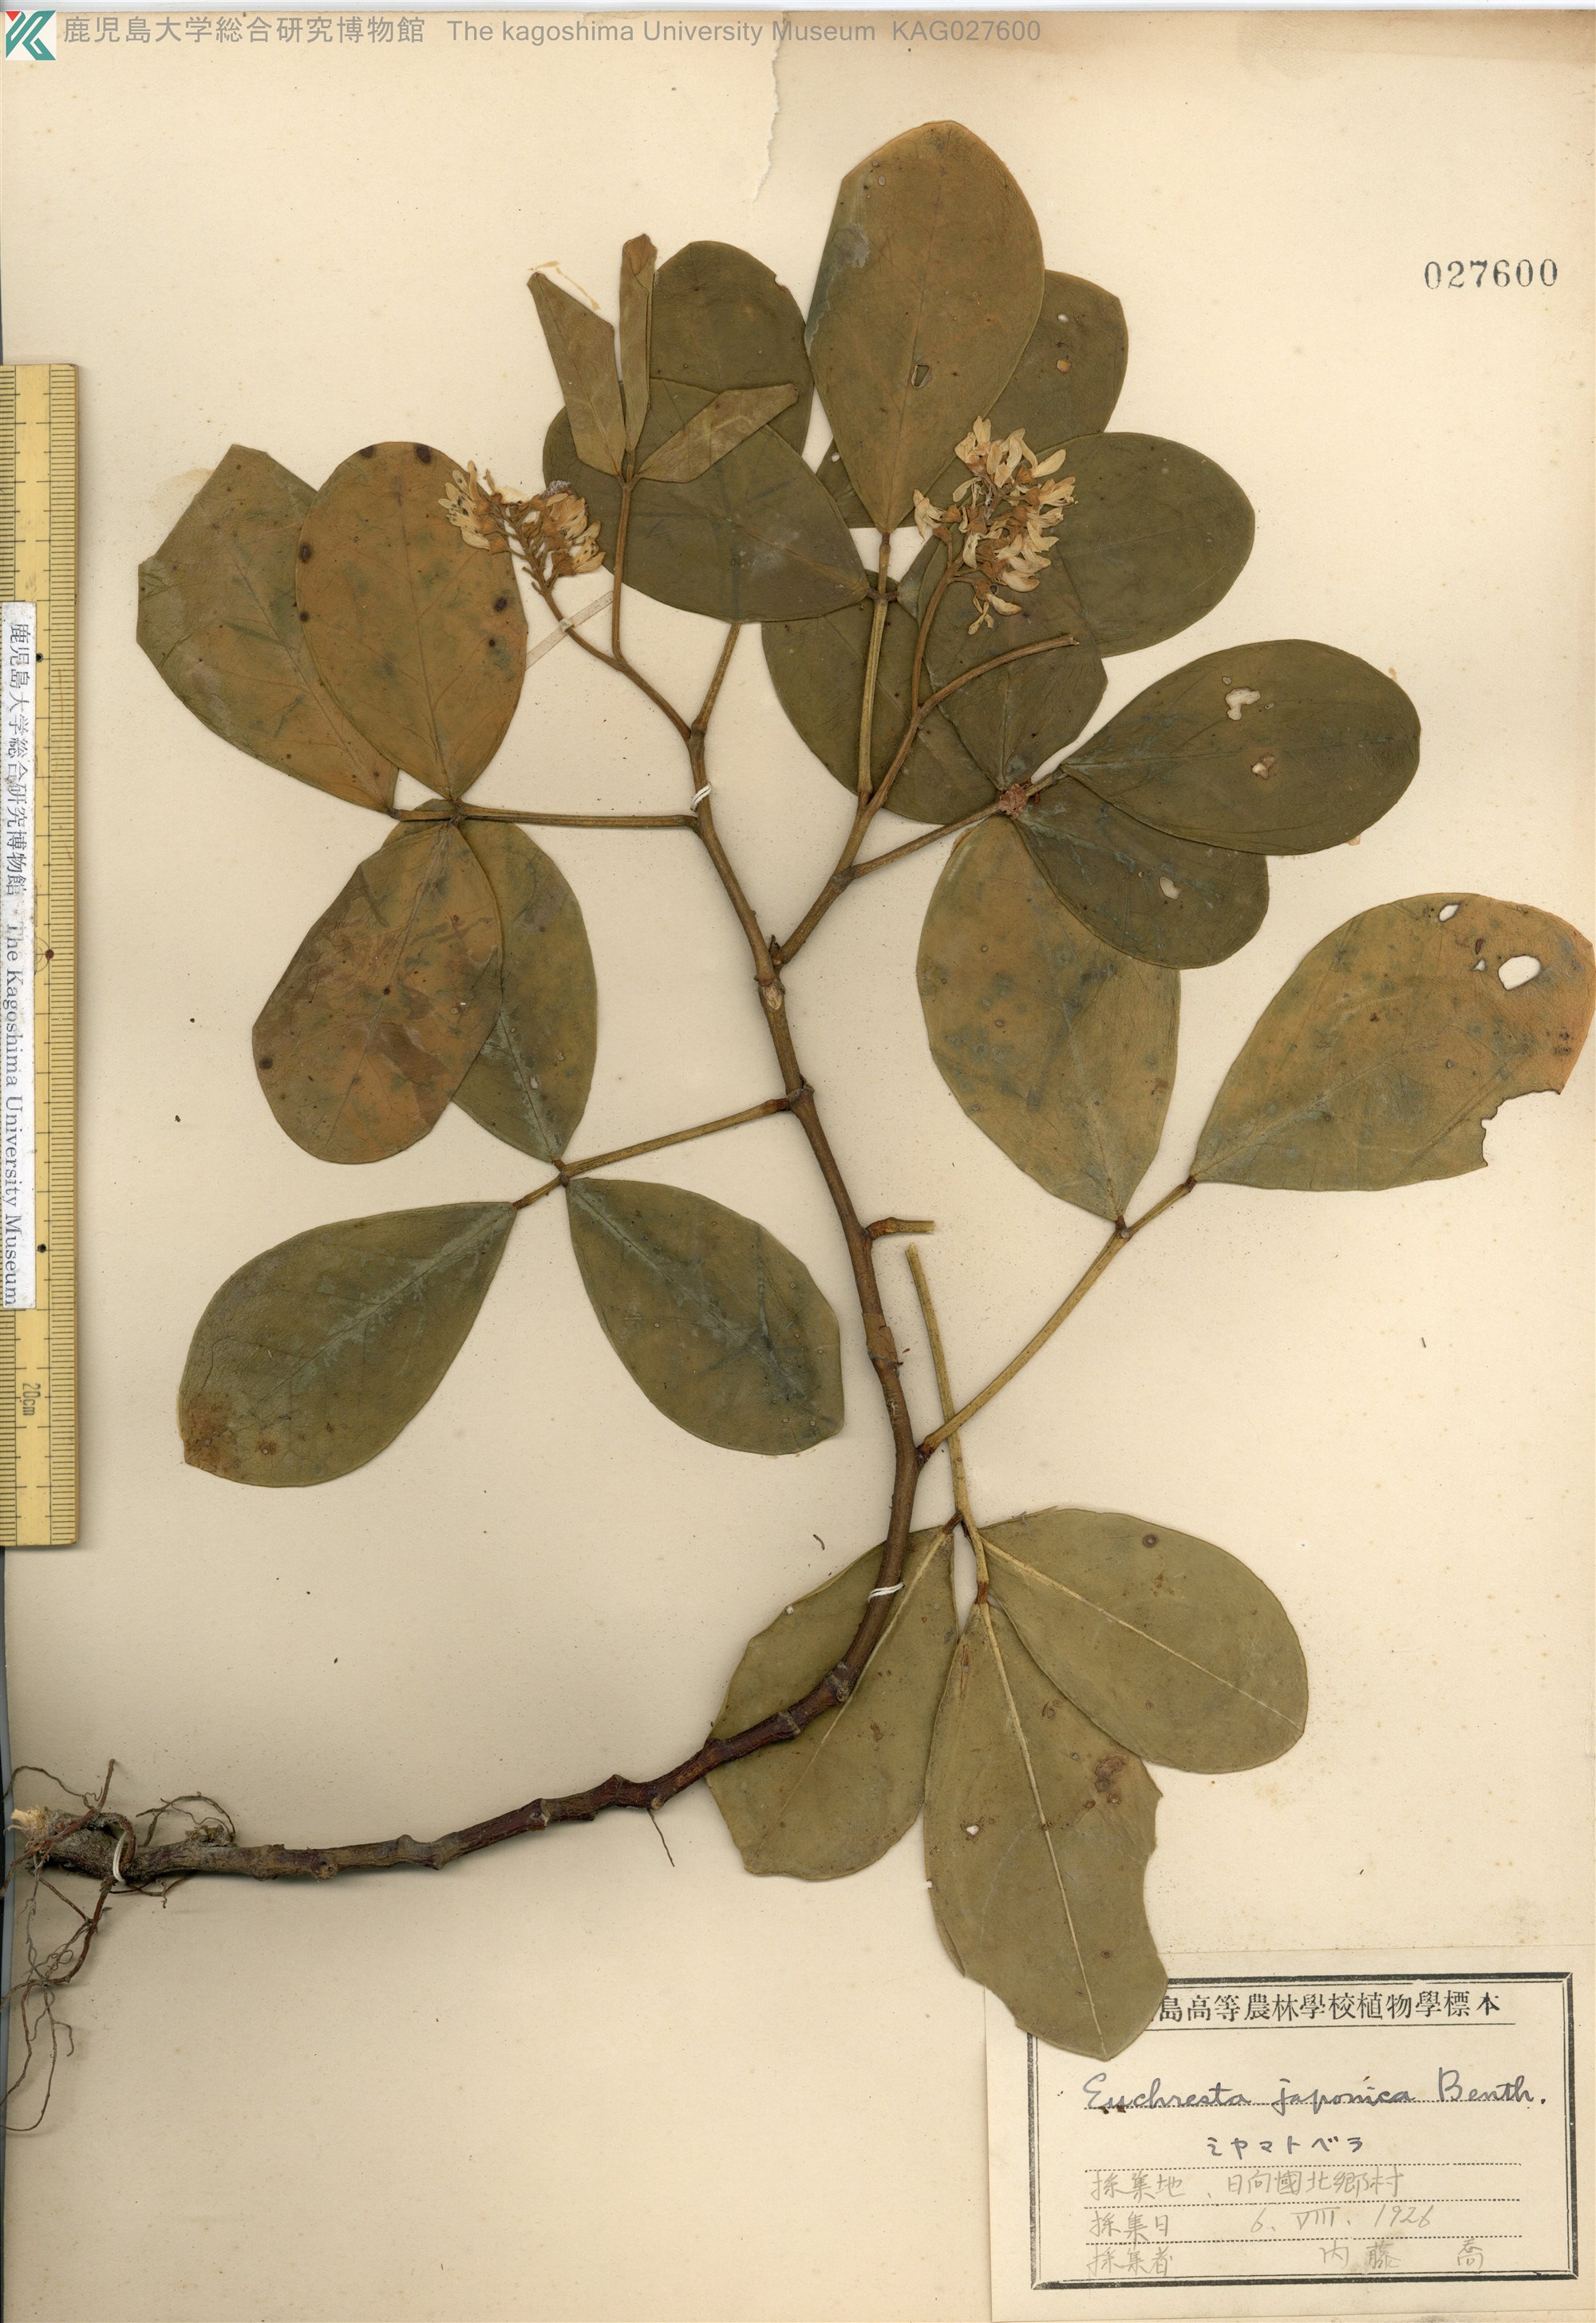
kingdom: Plantae
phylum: Tracheophyta
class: Magnoliopsida
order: Fabales
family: Fabaceae
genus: Euchresta
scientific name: Euchresta japonica
